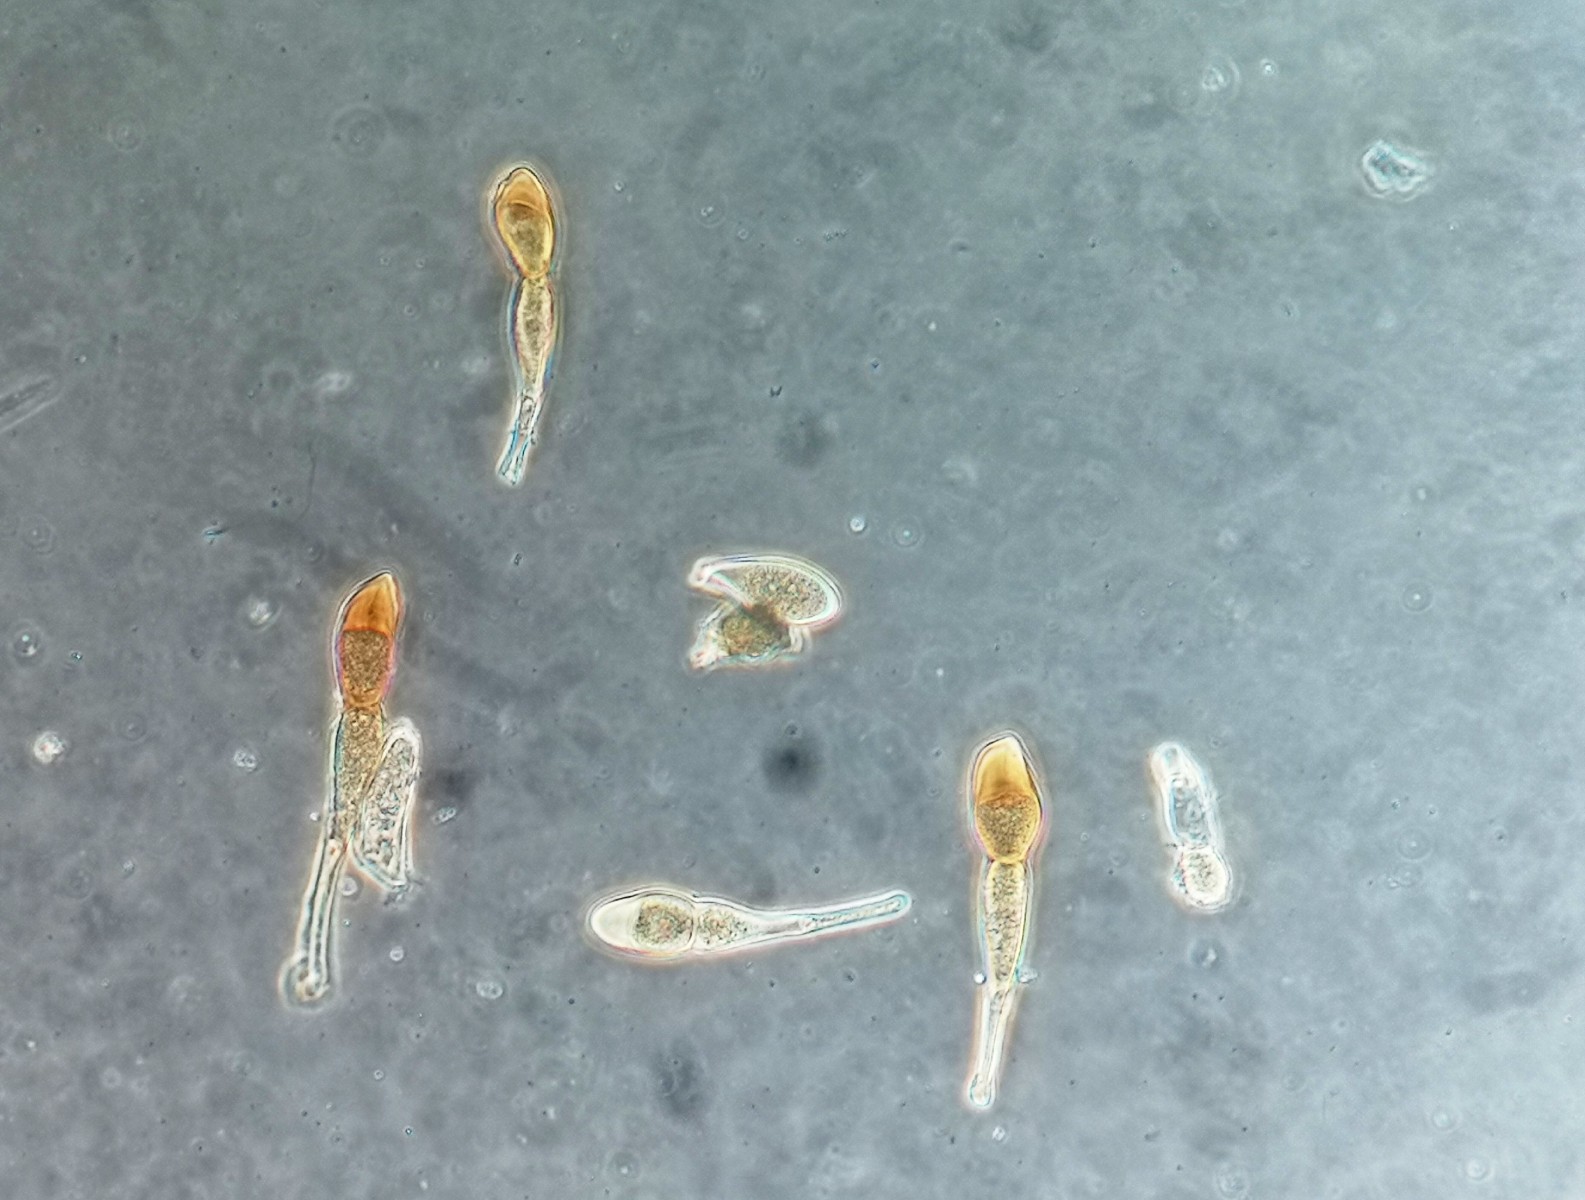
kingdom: Fungi
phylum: Basidiomycota
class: Pucciniomycetes
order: Pucciniales
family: Pucciniaceae
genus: Puccinia
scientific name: Puccinia obscura
